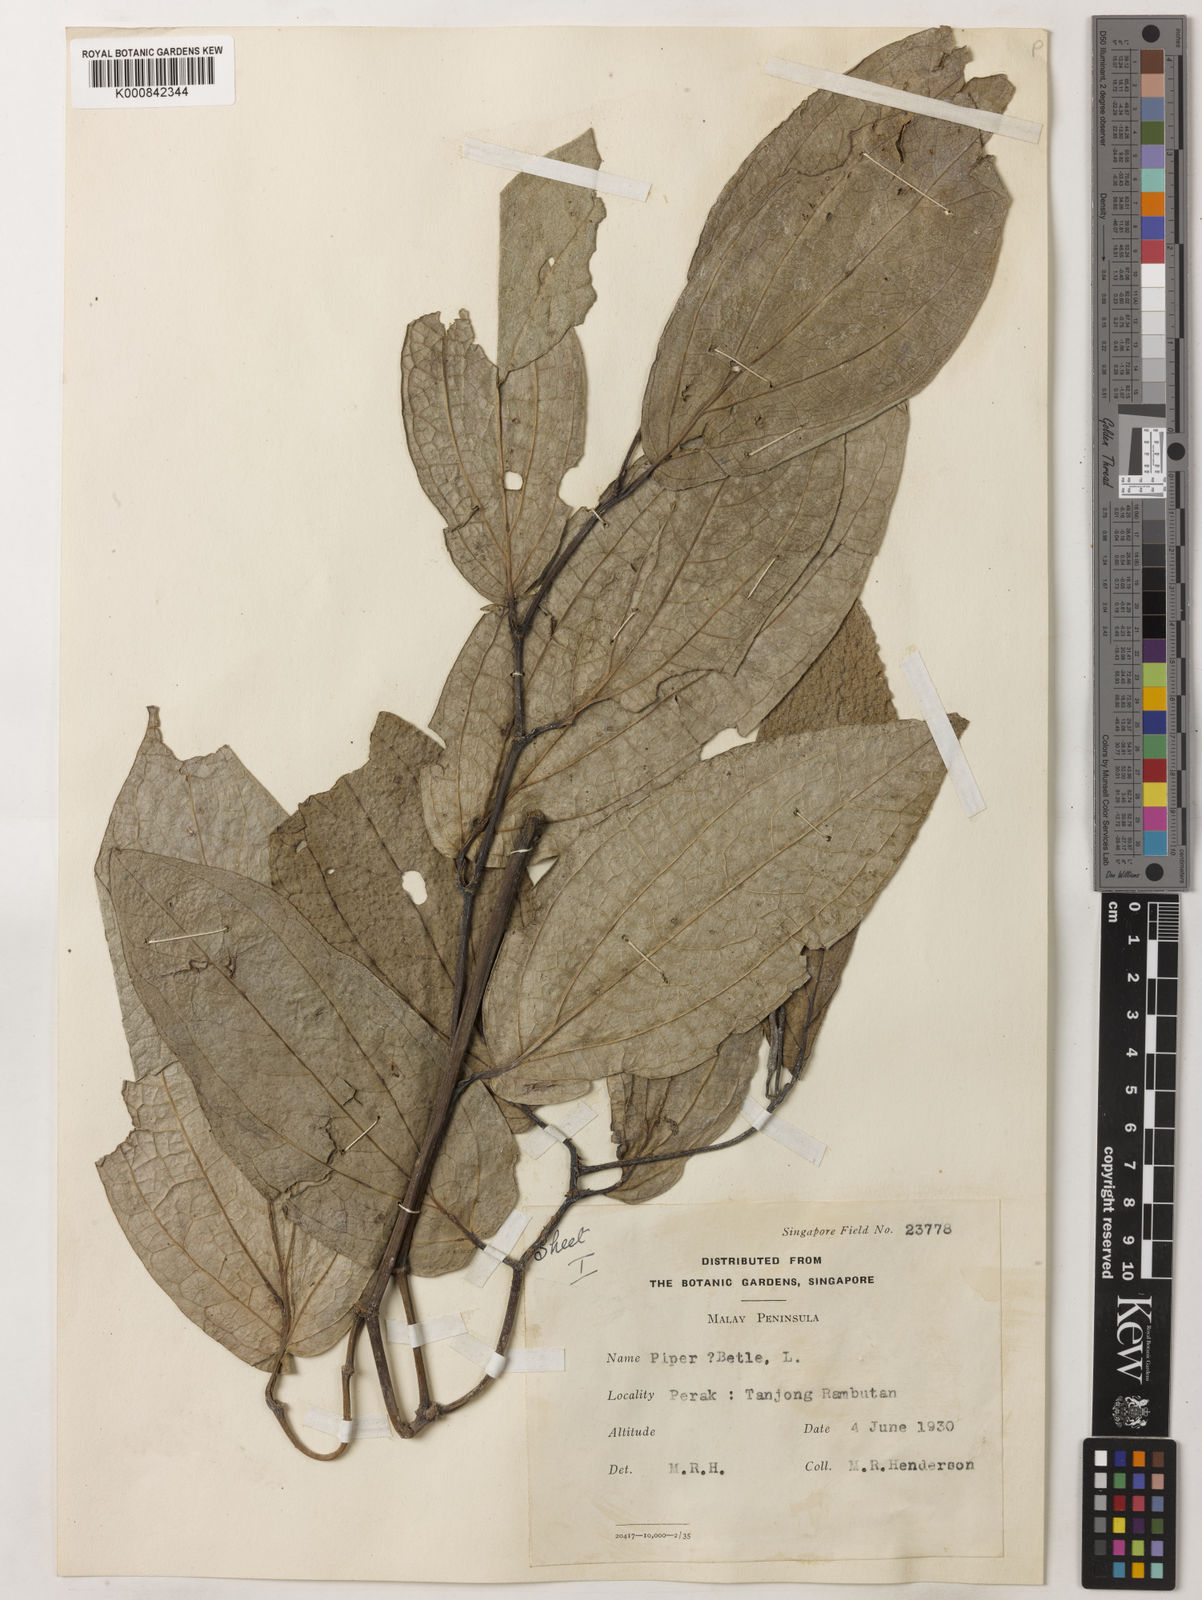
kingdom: Plantae
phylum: Tracheophyta
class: Magnoliopsida
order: Piperales
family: Piperaceae
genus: Piper
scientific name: Piper betle
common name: Betel pepper
